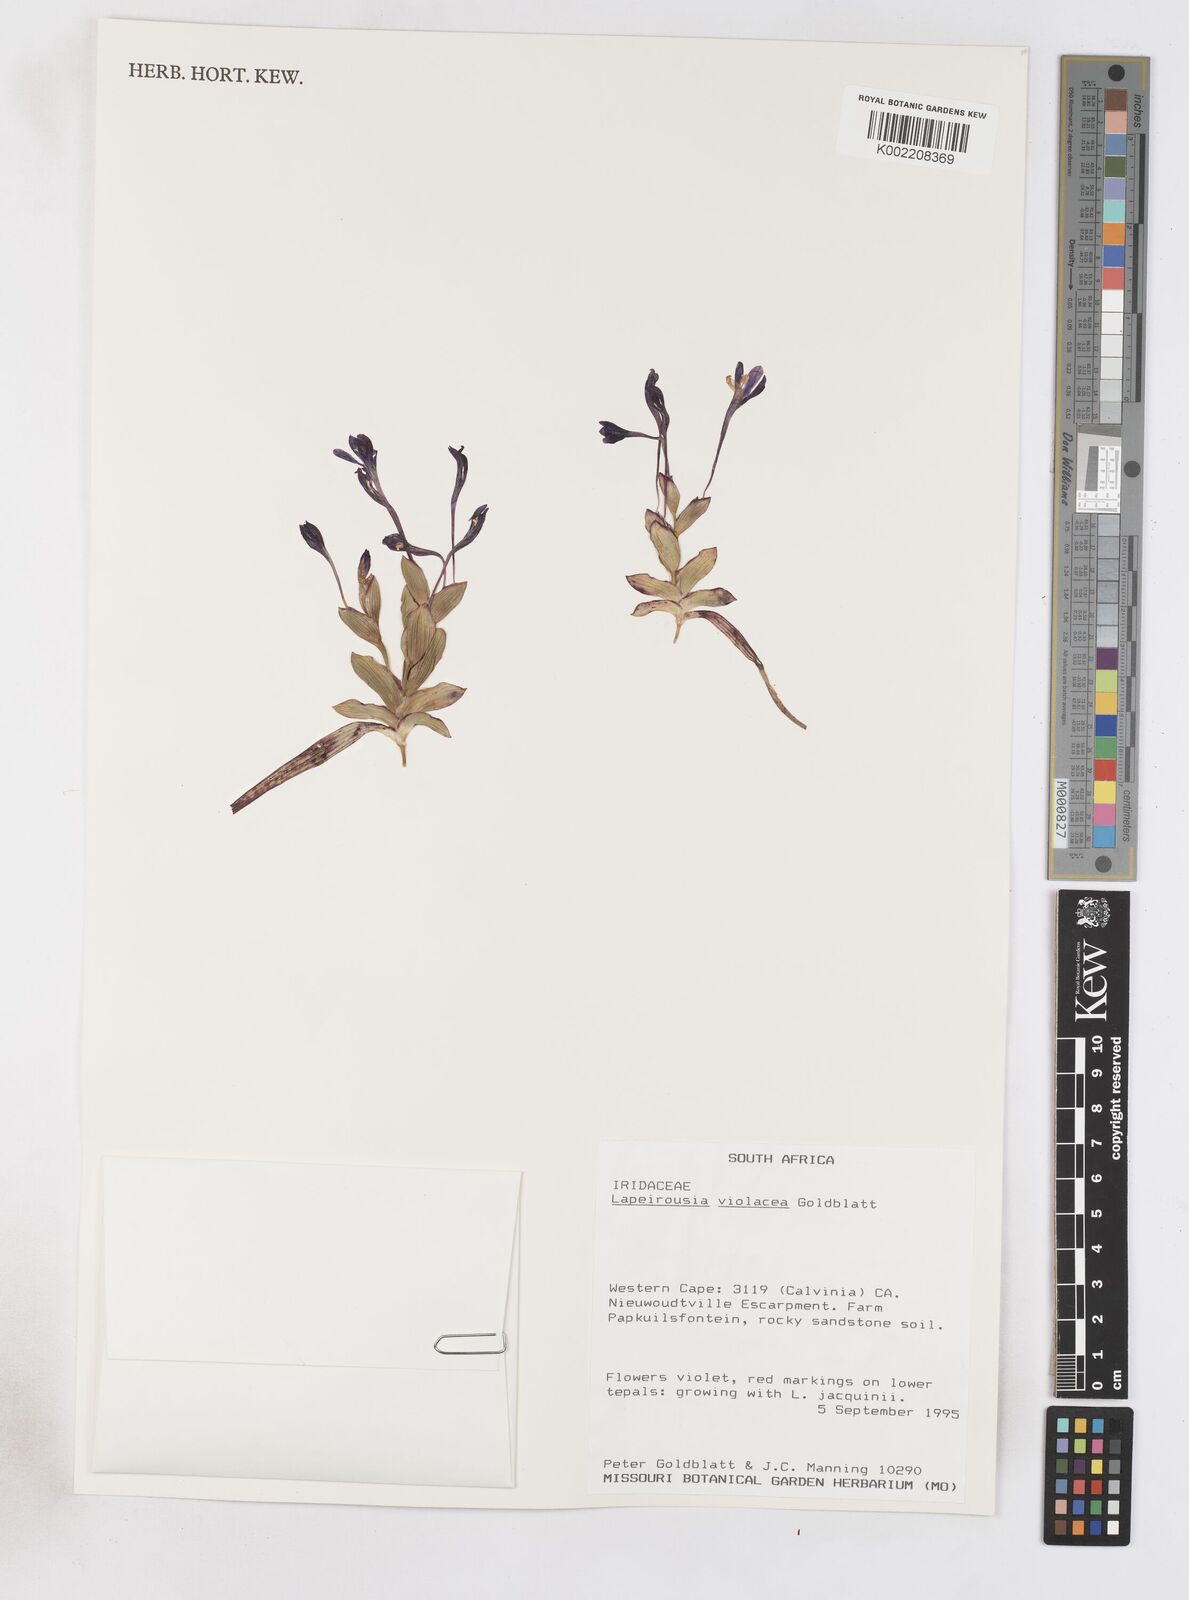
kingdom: Plantae
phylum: Tracheophyta
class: Liliopsida
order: Asparagales
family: Iridaceae
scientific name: Iridaceae
